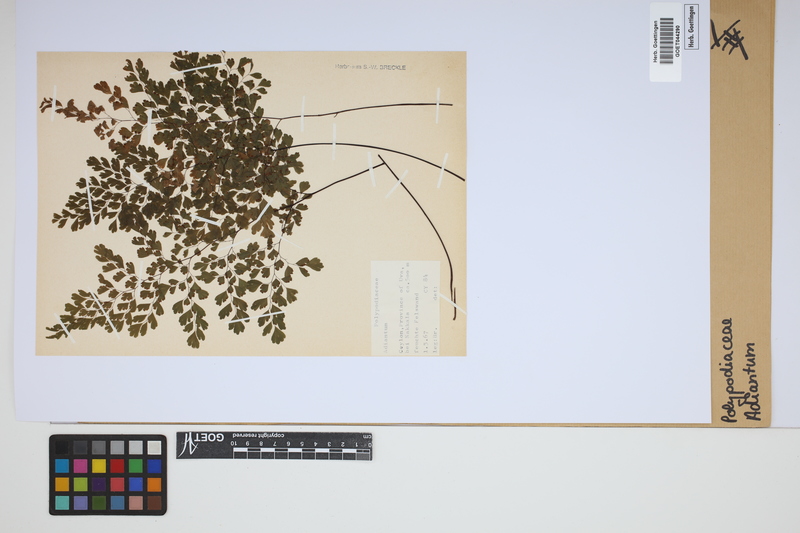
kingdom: Plantae
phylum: Tracheophyta
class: Polypodiopsida
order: Polypodiales
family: Pteridaceae
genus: Adiantum
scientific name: Adiantum
